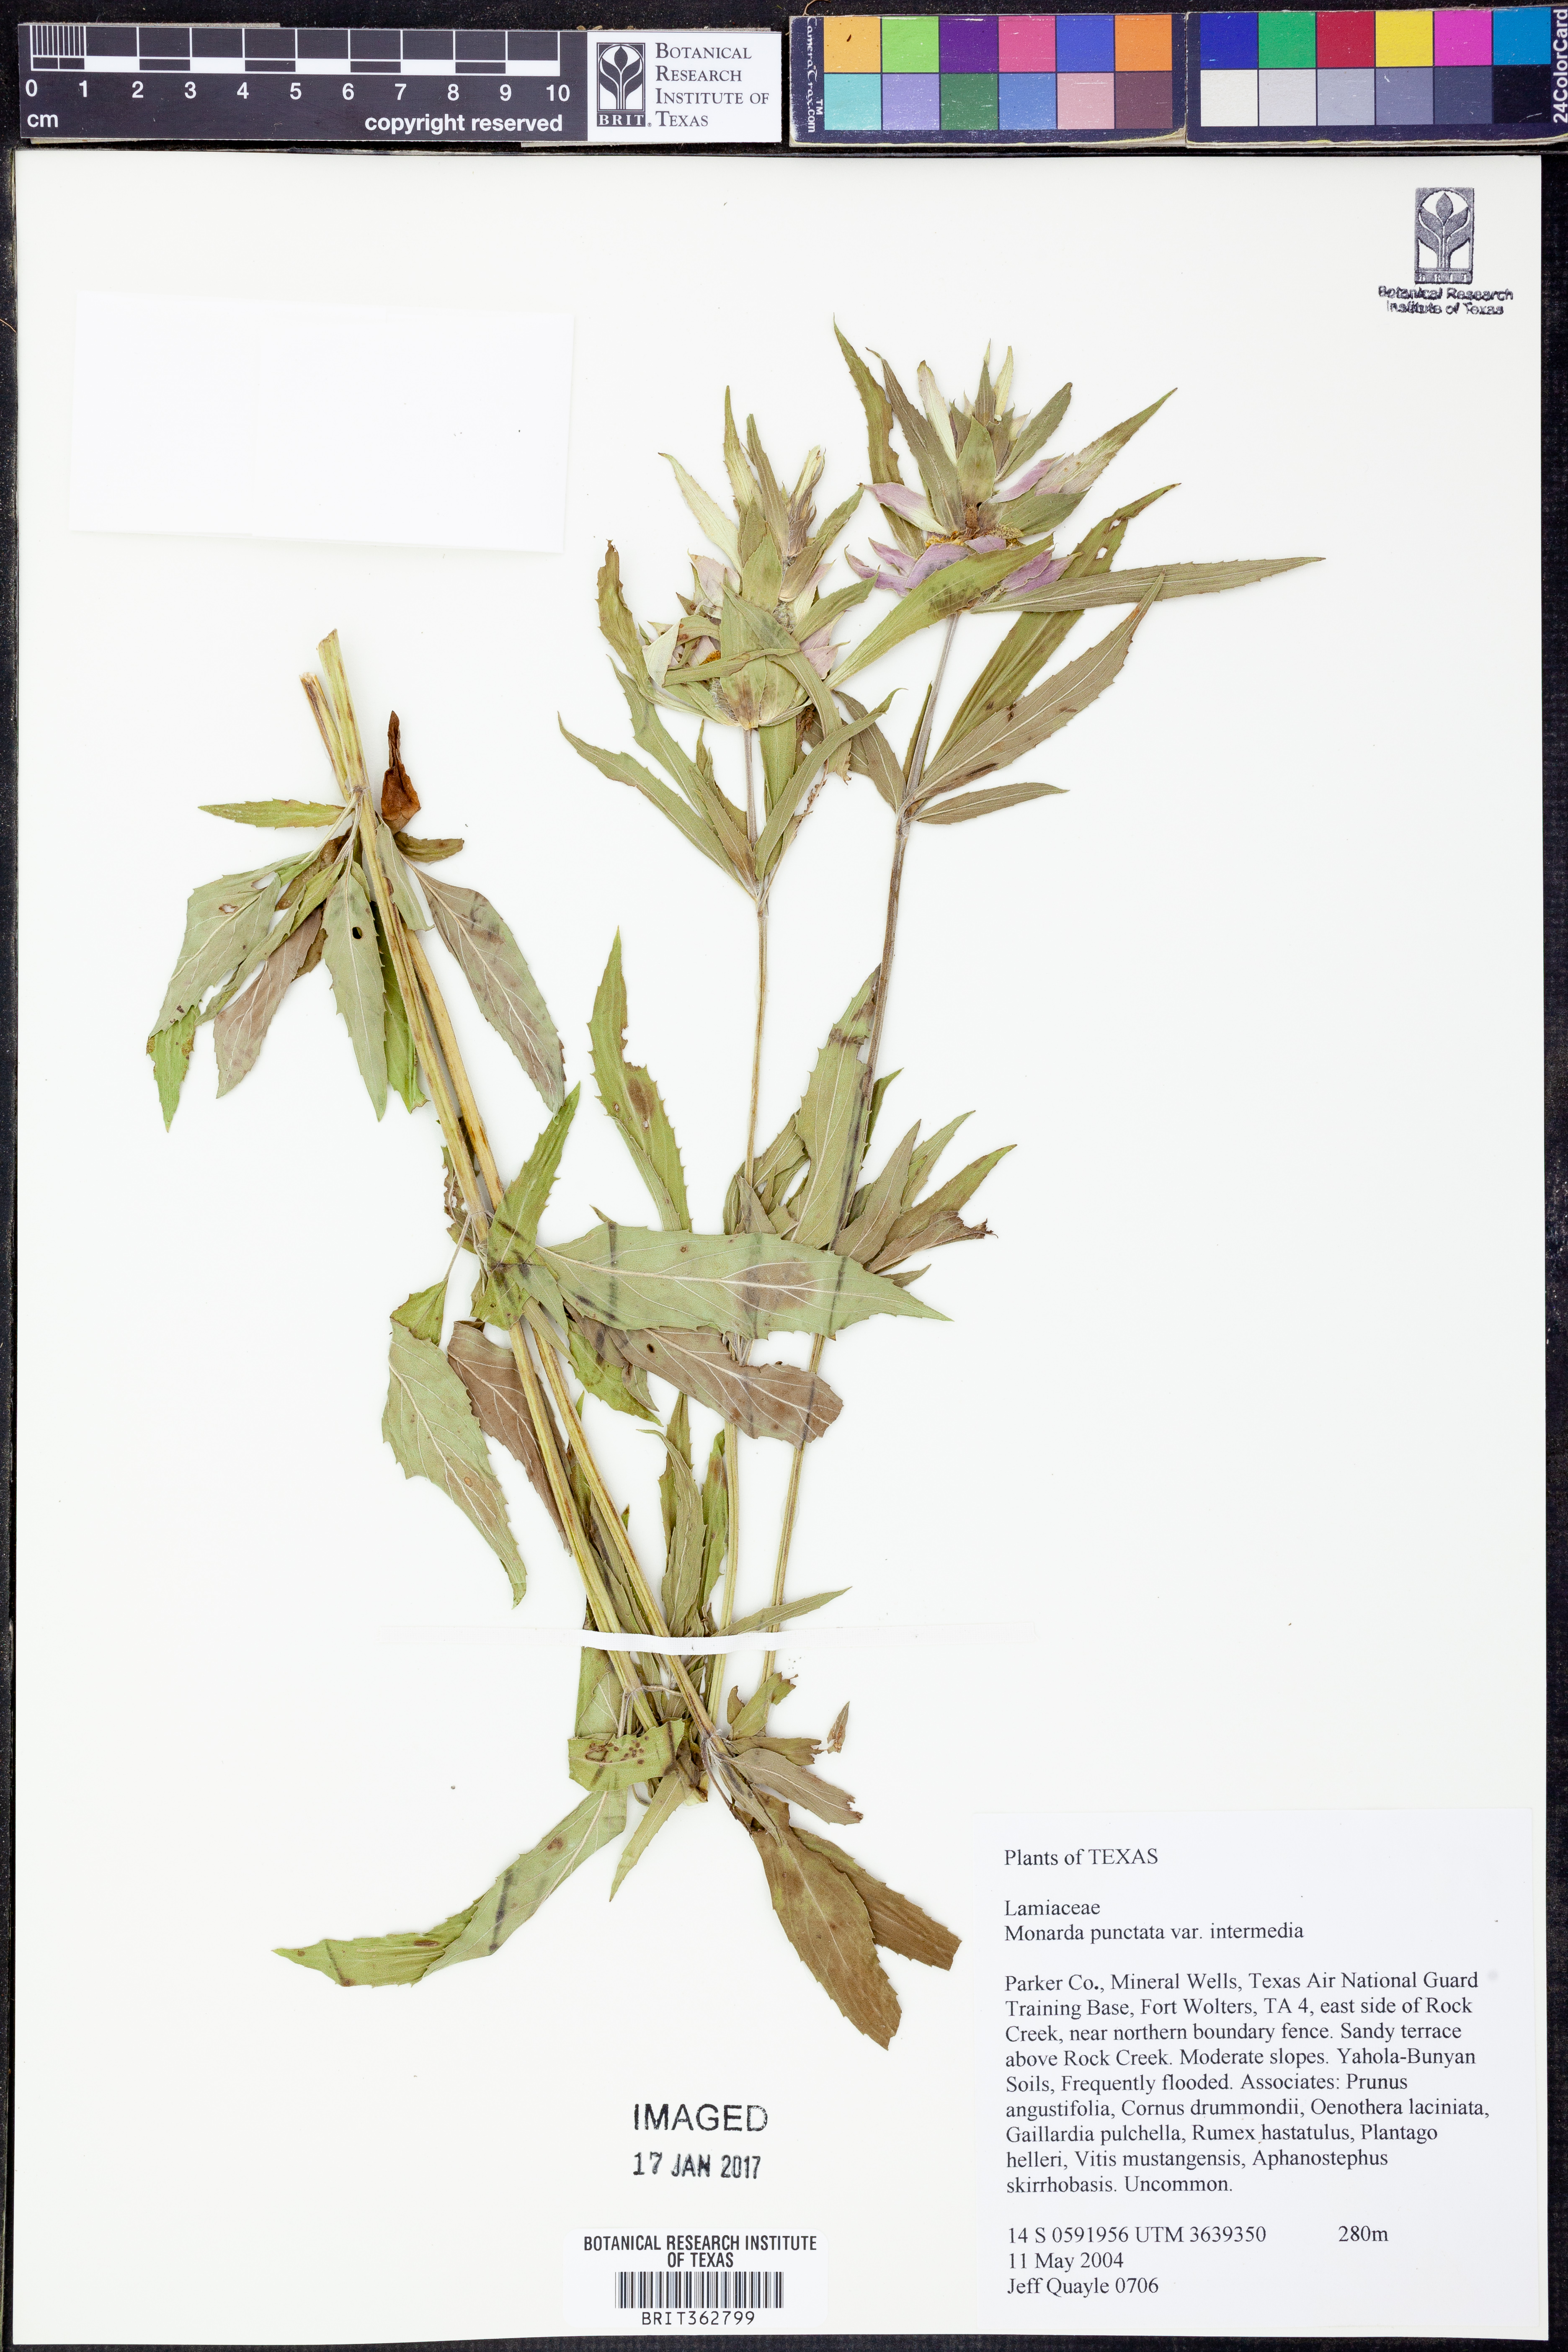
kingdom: Plantae
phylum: Tracheophyta
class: Magnoliopsida
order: Lamiales
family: Lamiaceae
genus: Monarda
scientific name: Monarda punctata
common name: Dotted monarda
